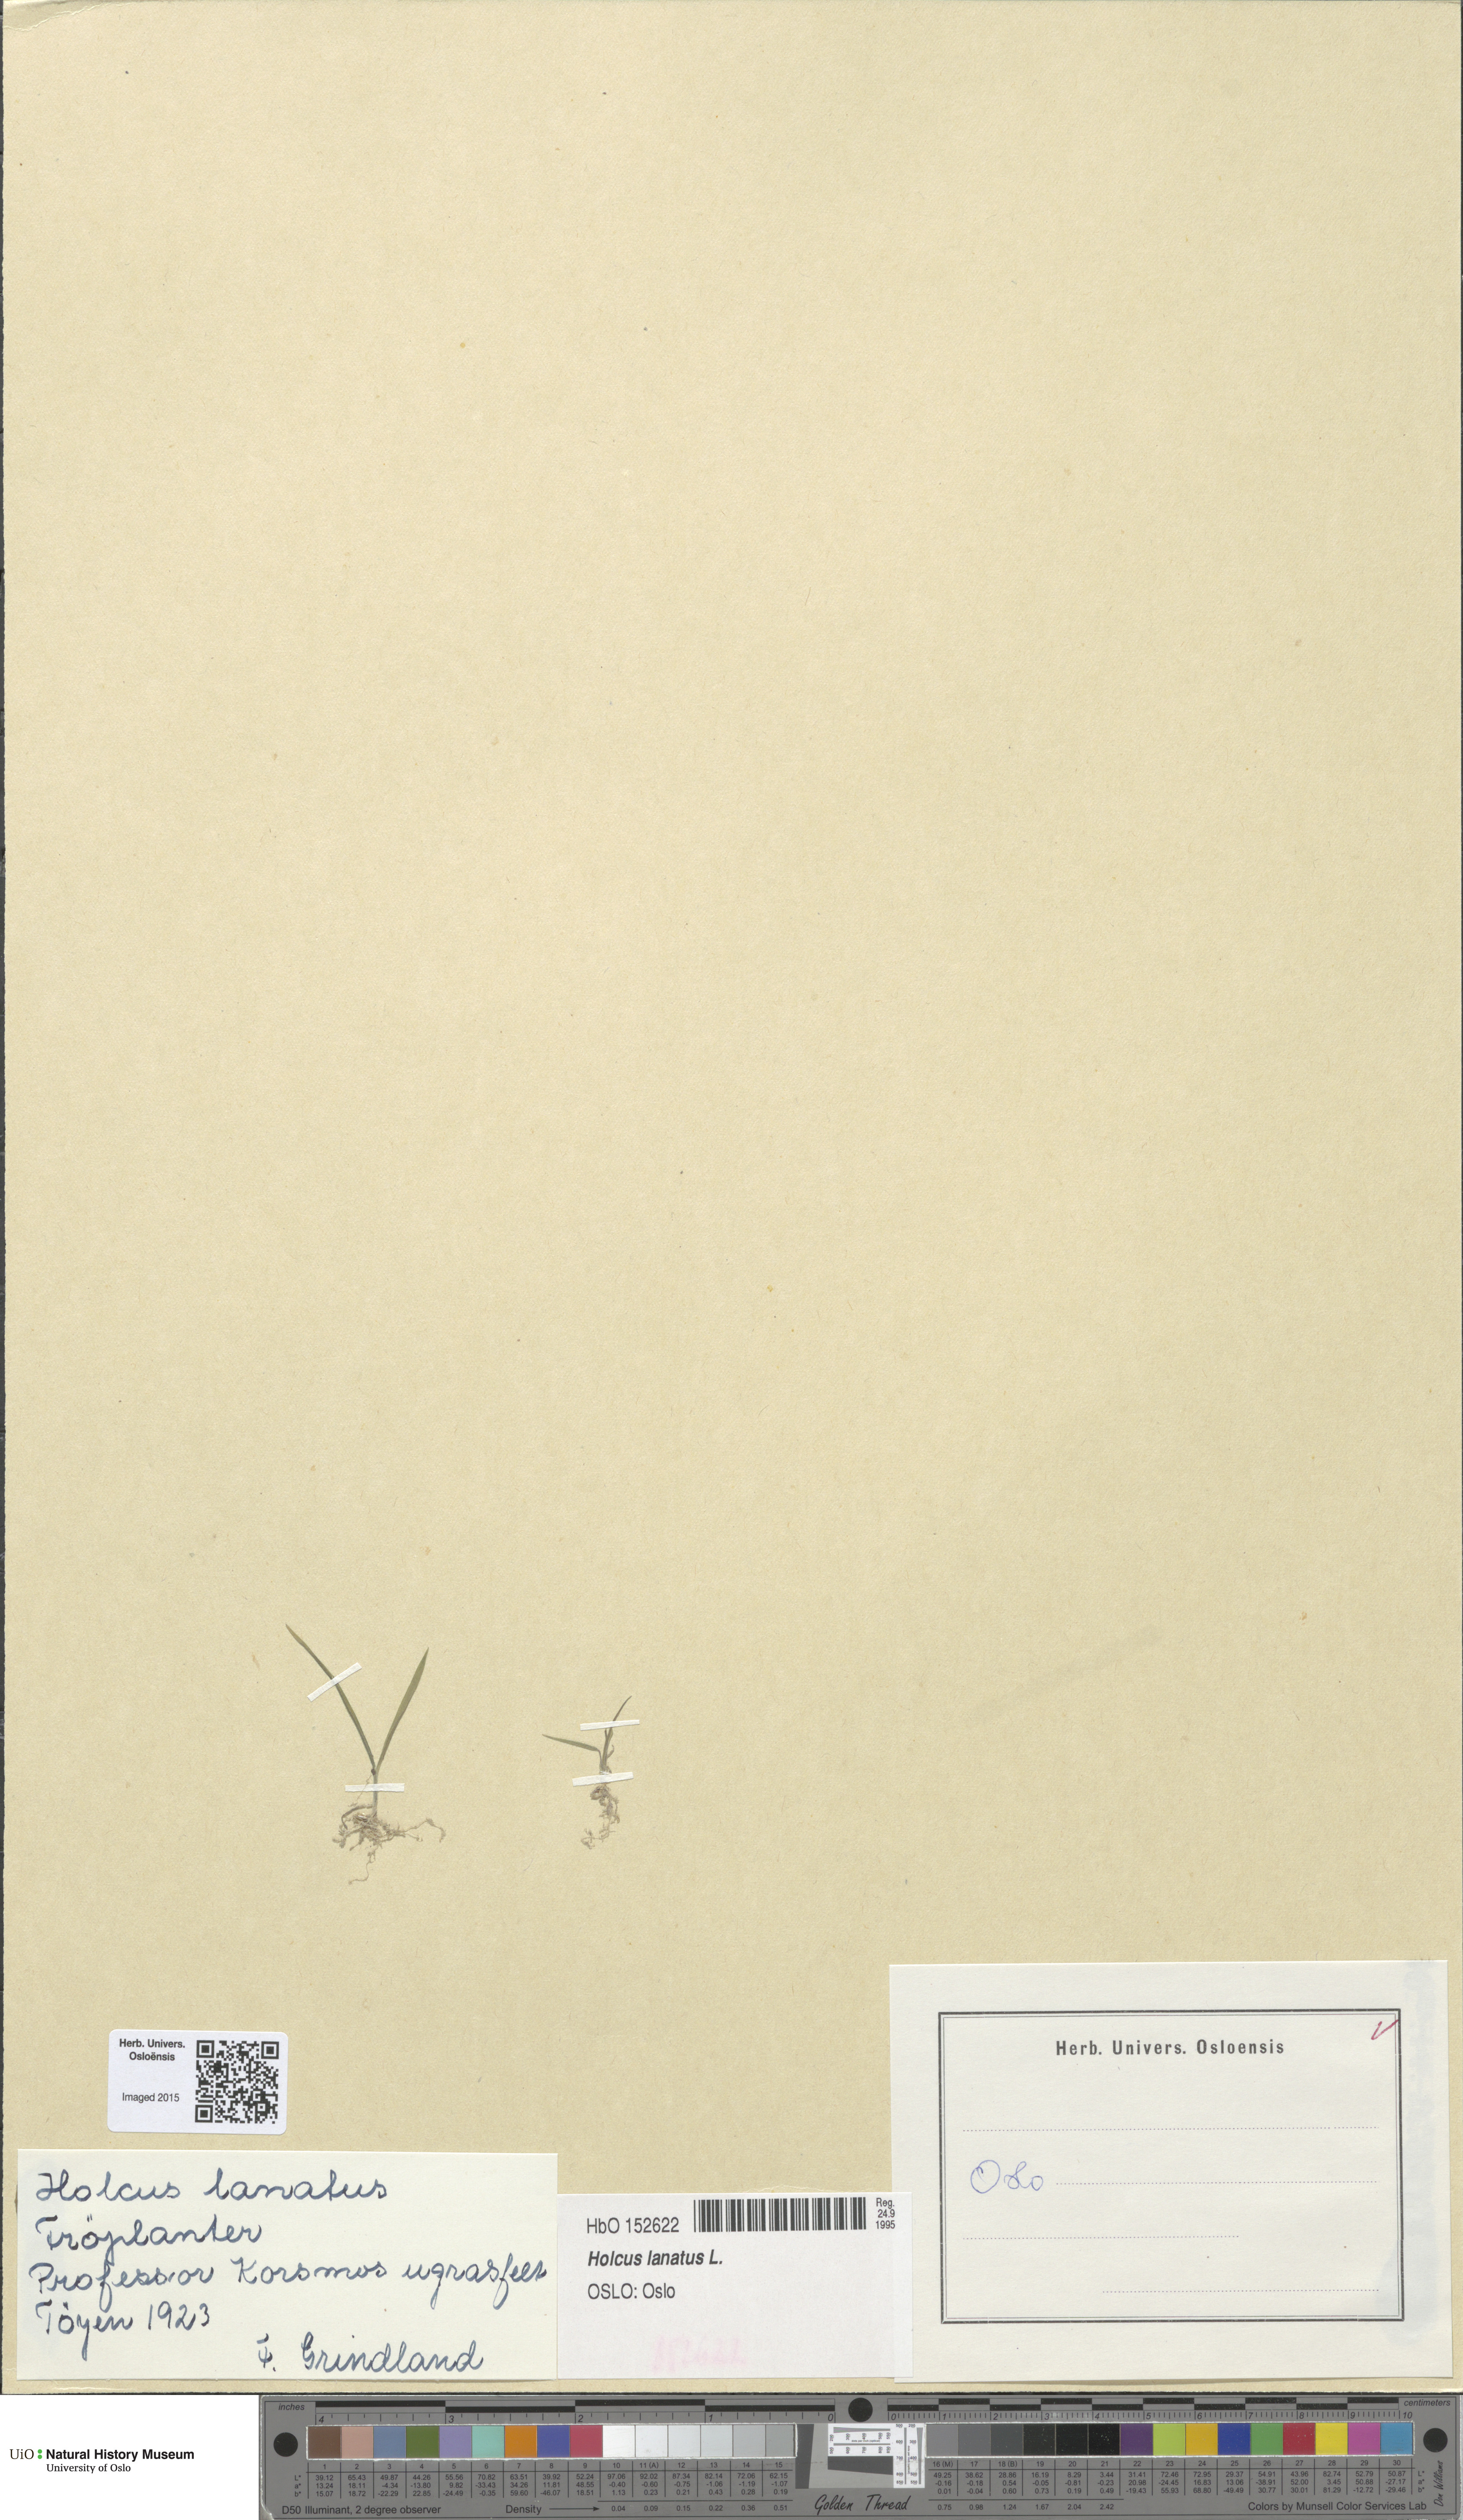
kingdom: Plantae
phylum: Tracheophyta
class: Liliopsida
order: Poales
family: Poaceae
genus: Holcus
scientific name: Holcus lanatus
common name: Yorkshire-fog
